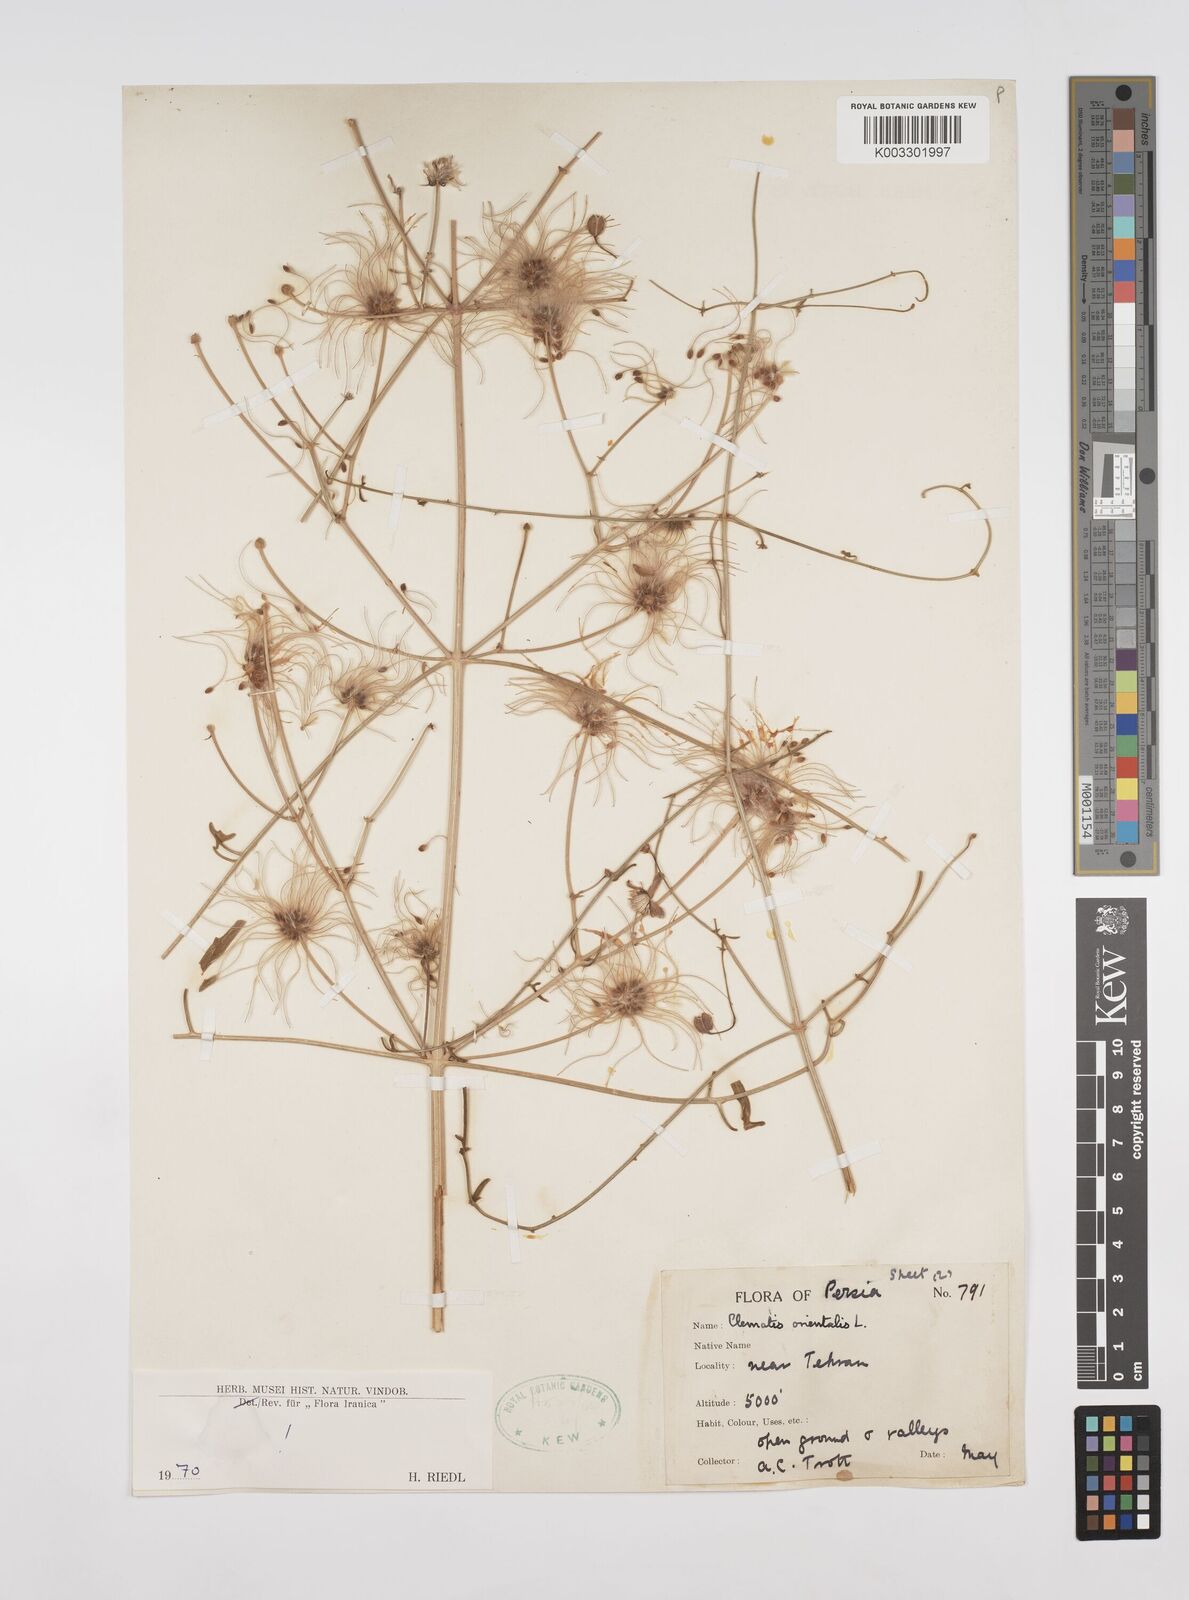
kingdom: Plantae
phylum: Tracheophyta
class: Magnoliopsida
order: Ranunculales
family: Ranunculaceae
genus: Clematis
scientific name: Clematis orientalis
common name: Oriental virgin's-bower
